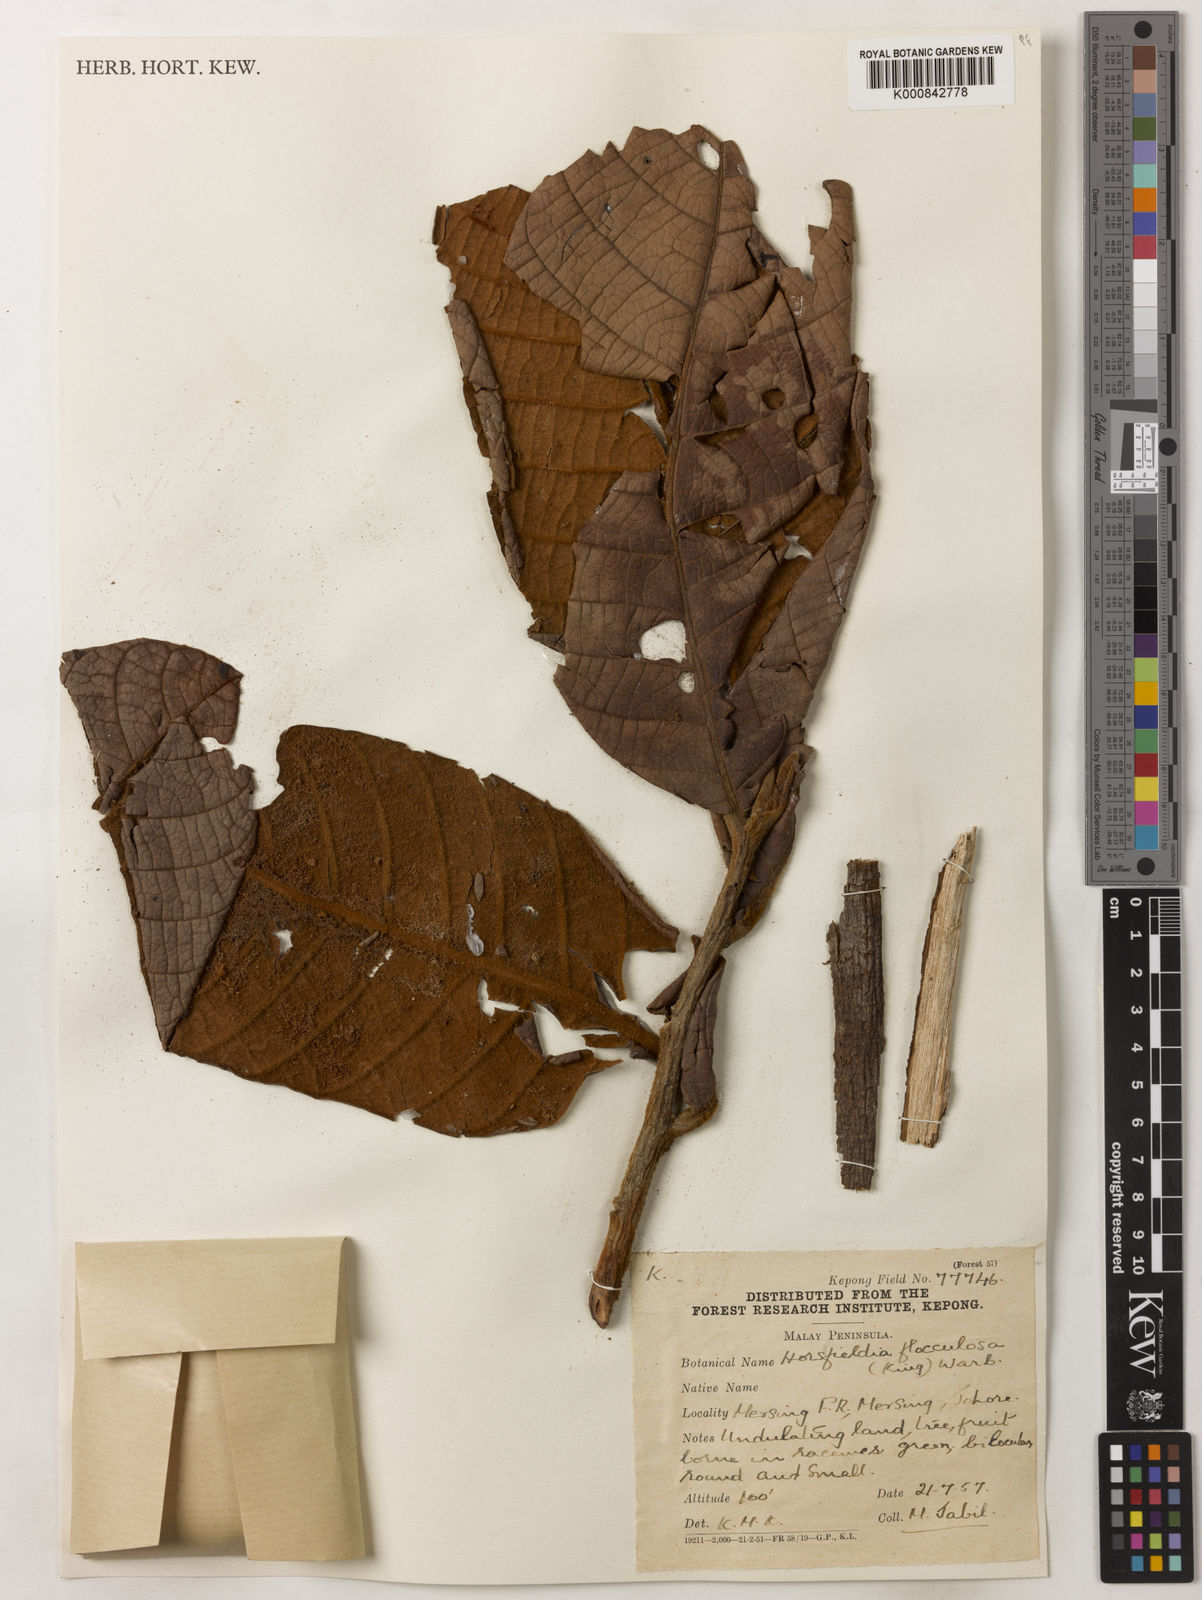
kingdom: Plantae
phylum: Tracheophyta
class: Magnoliopsida
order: Magnoliales
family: Myristicaceae
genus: Horsfieldia
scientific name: Horsfieldia flocculosa
